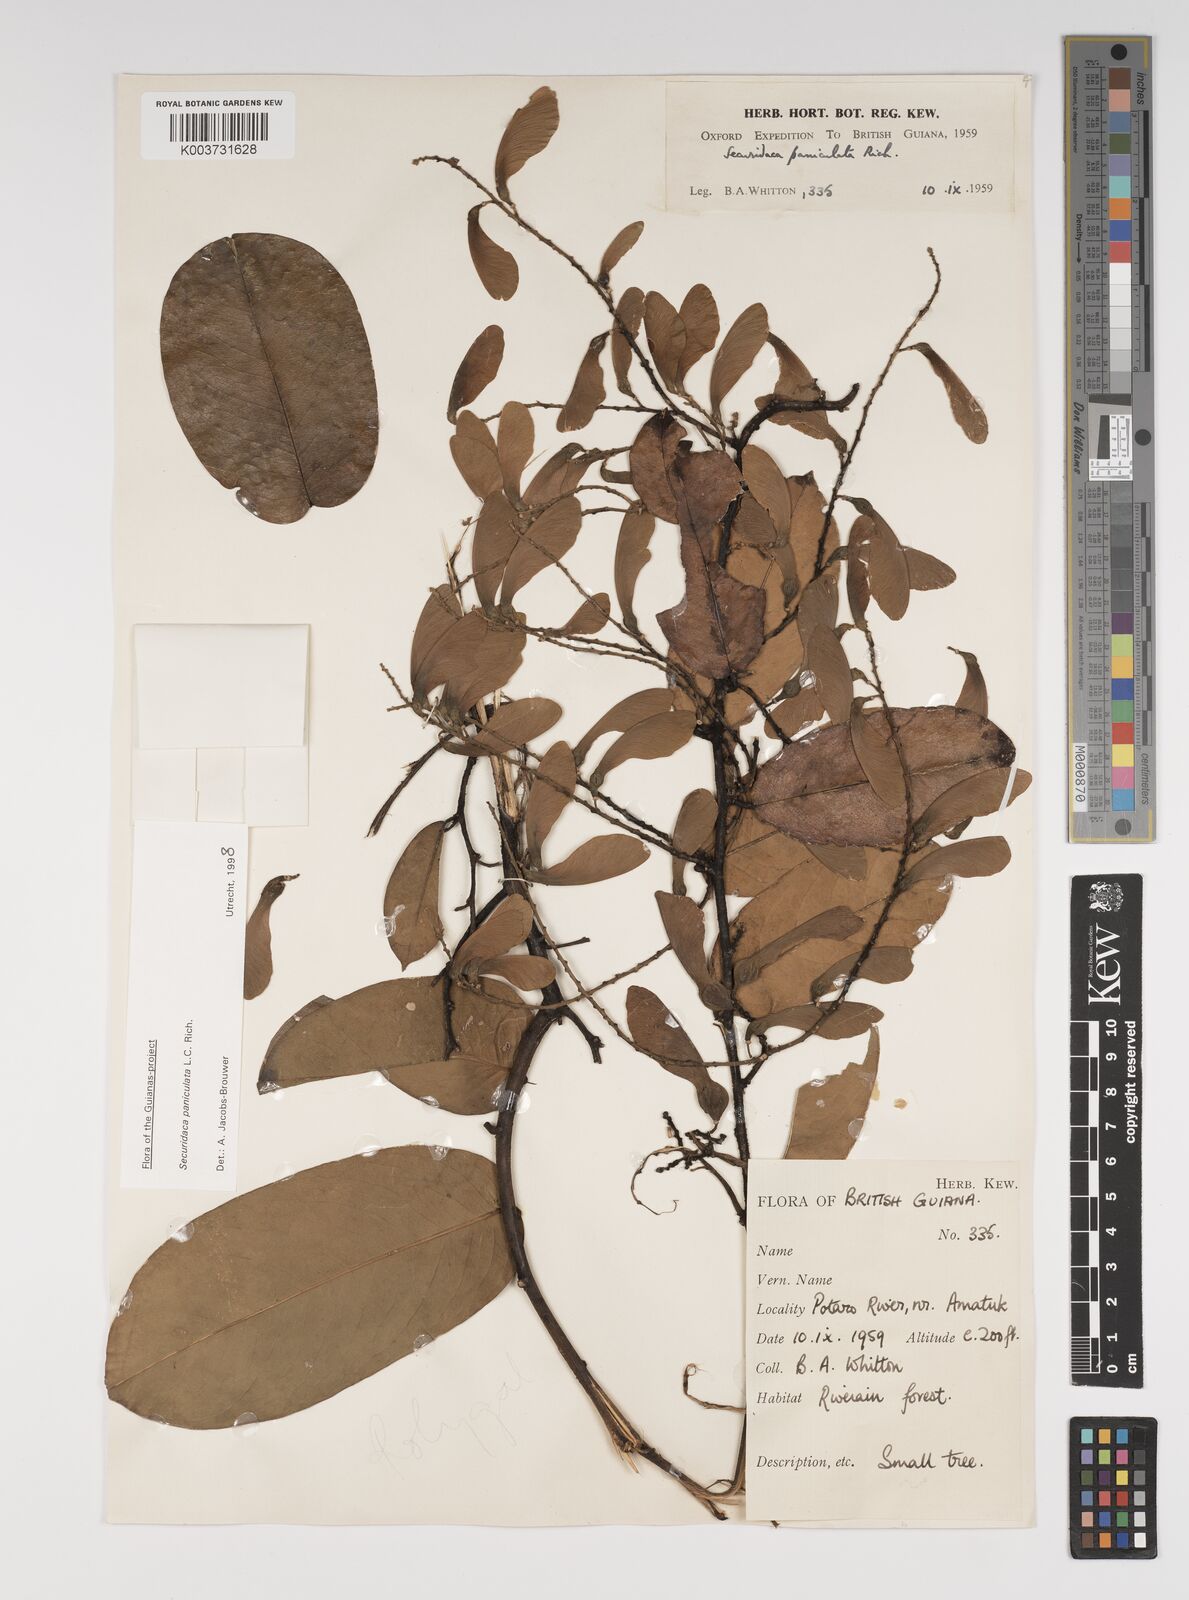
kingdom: Plantae
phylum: Tracheophyta
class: Magnoliopsida
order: Fabales
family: Polygalaceae
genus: Securidaca
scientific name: Securidaca paniculata
